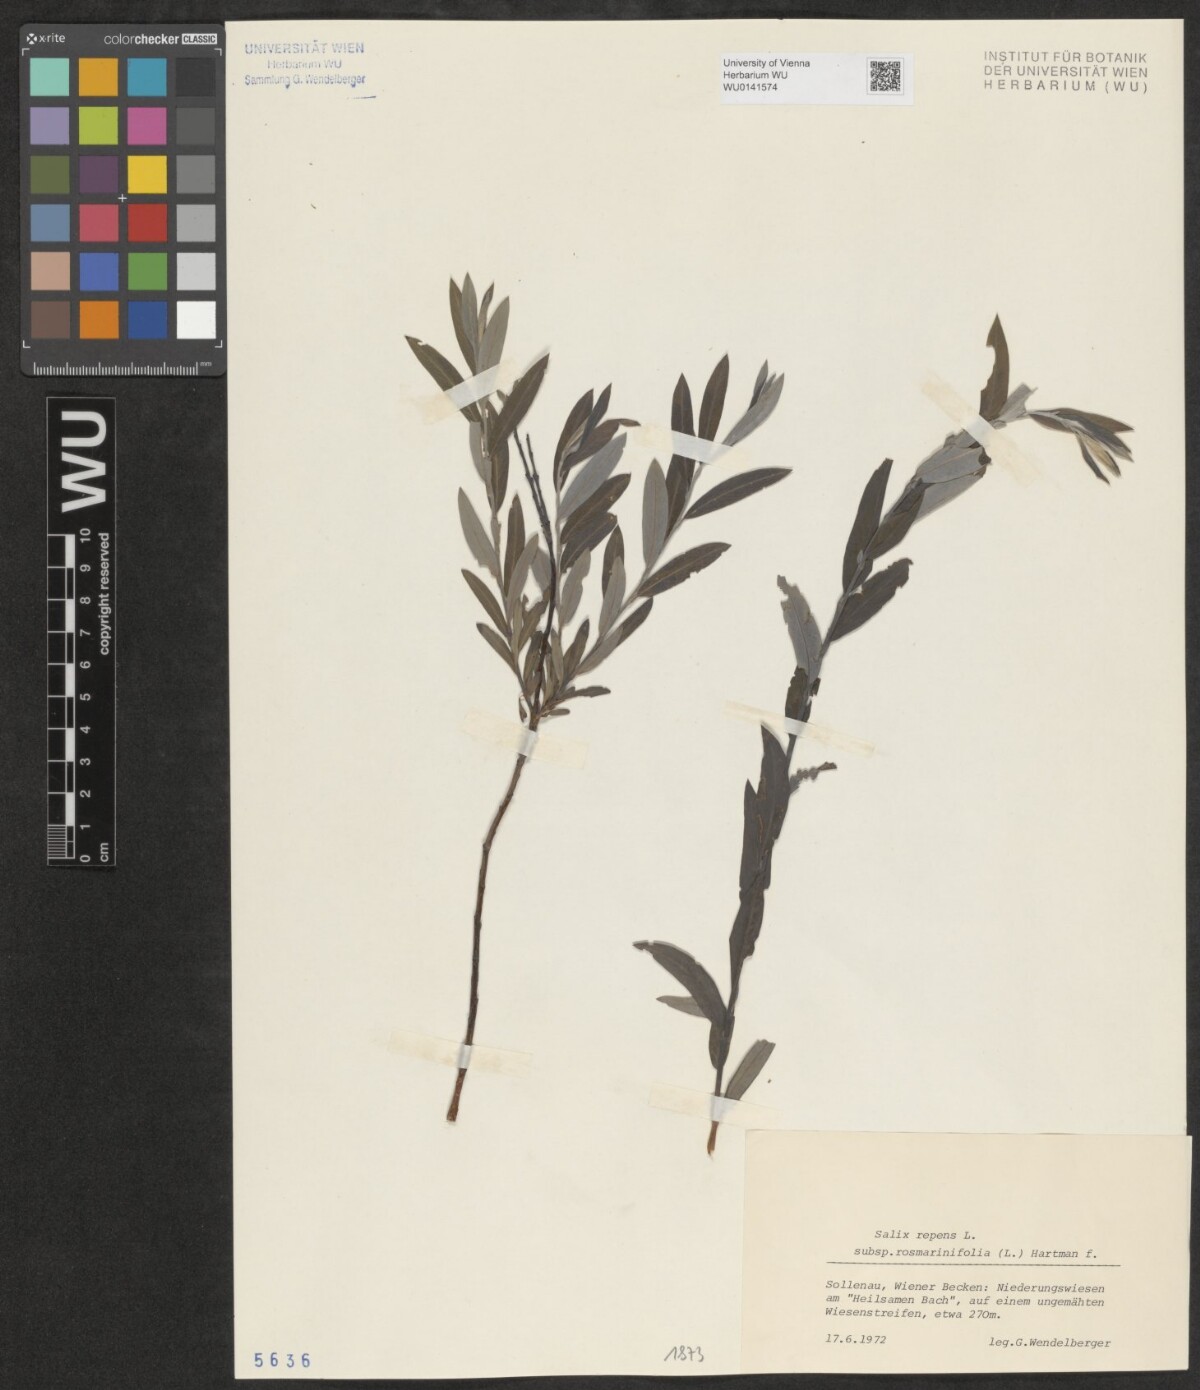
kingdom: Plantae
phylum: Tracheophyta
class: Magnoliopsida
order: Malpighiales
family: Salicaceae
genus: Salix
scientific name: Salix repens
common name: Creeping willow
